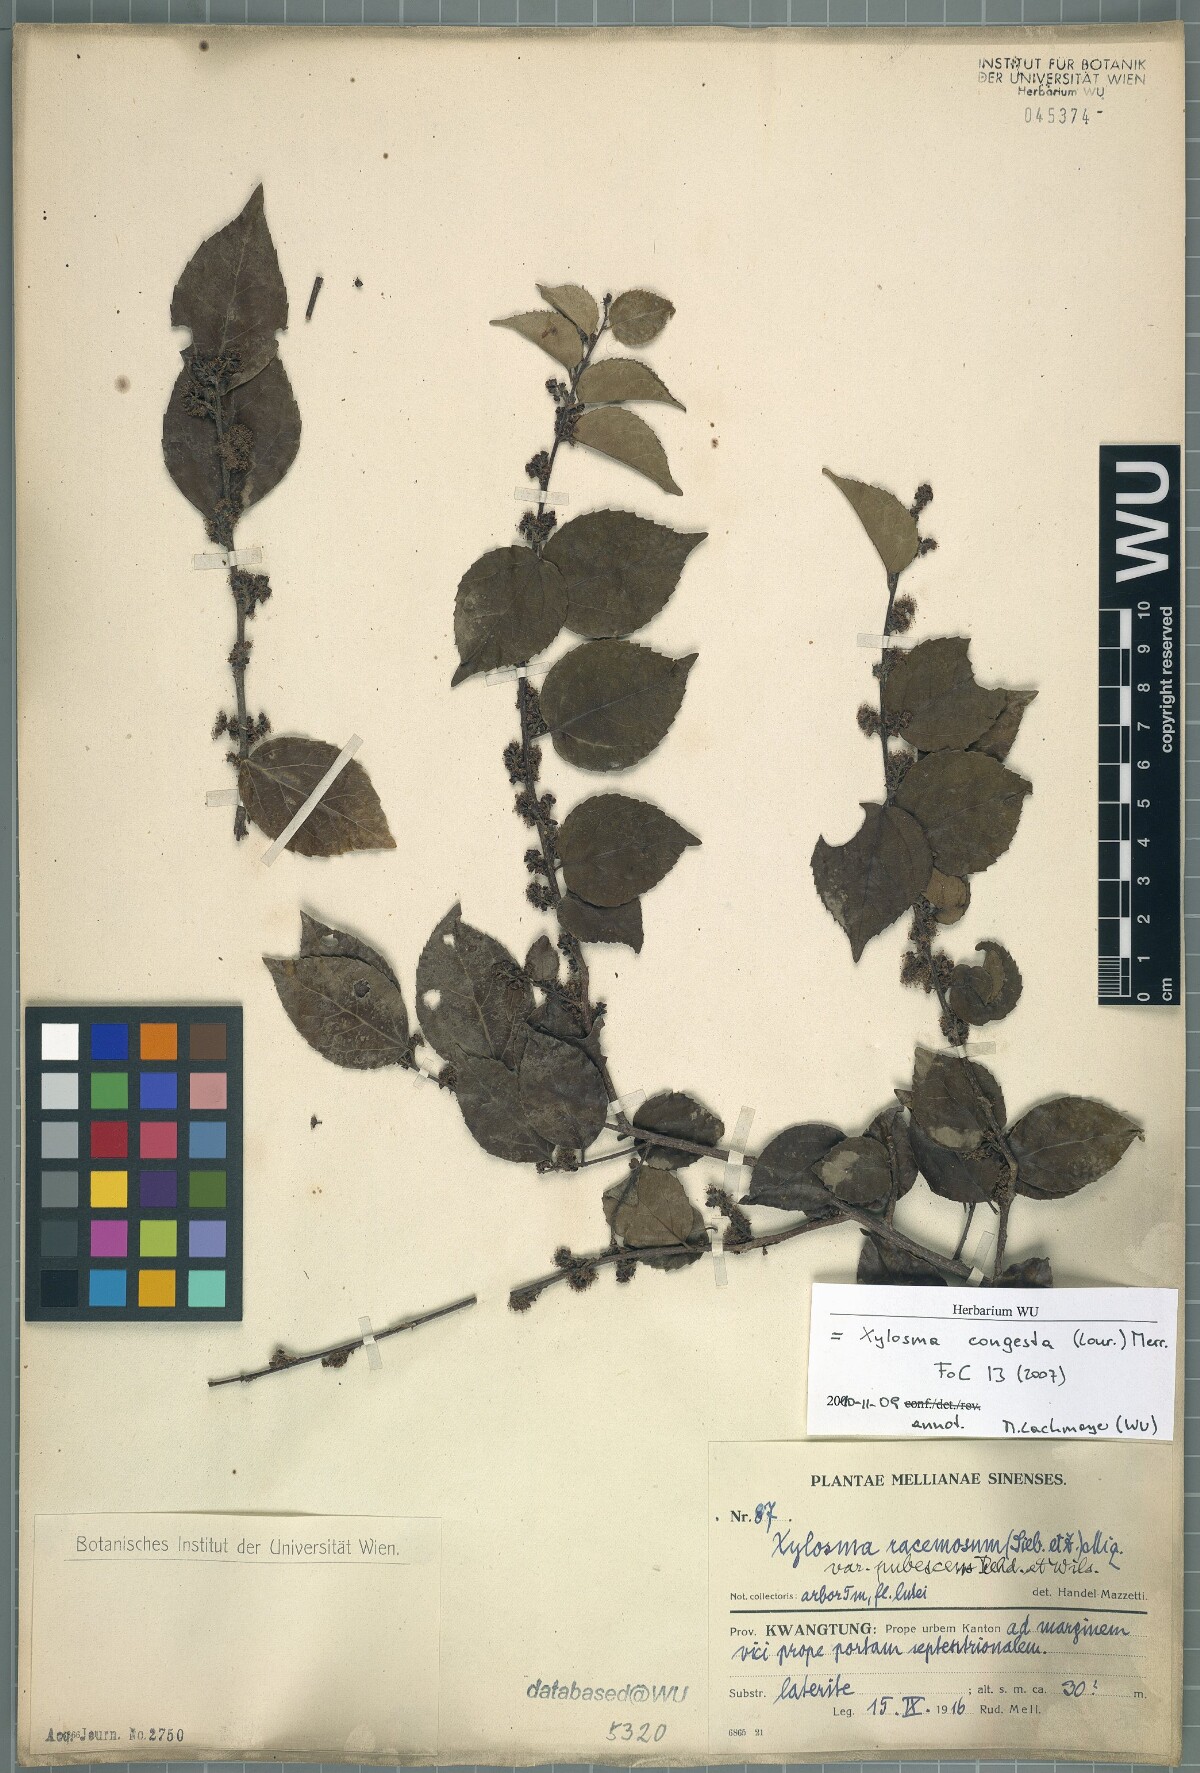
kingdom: Plantae
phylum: Tracheophyta
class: Magnoliopsida
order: Malpighiales
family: Salicaceae
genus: Xylosma
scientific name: Xylosma racemosum
